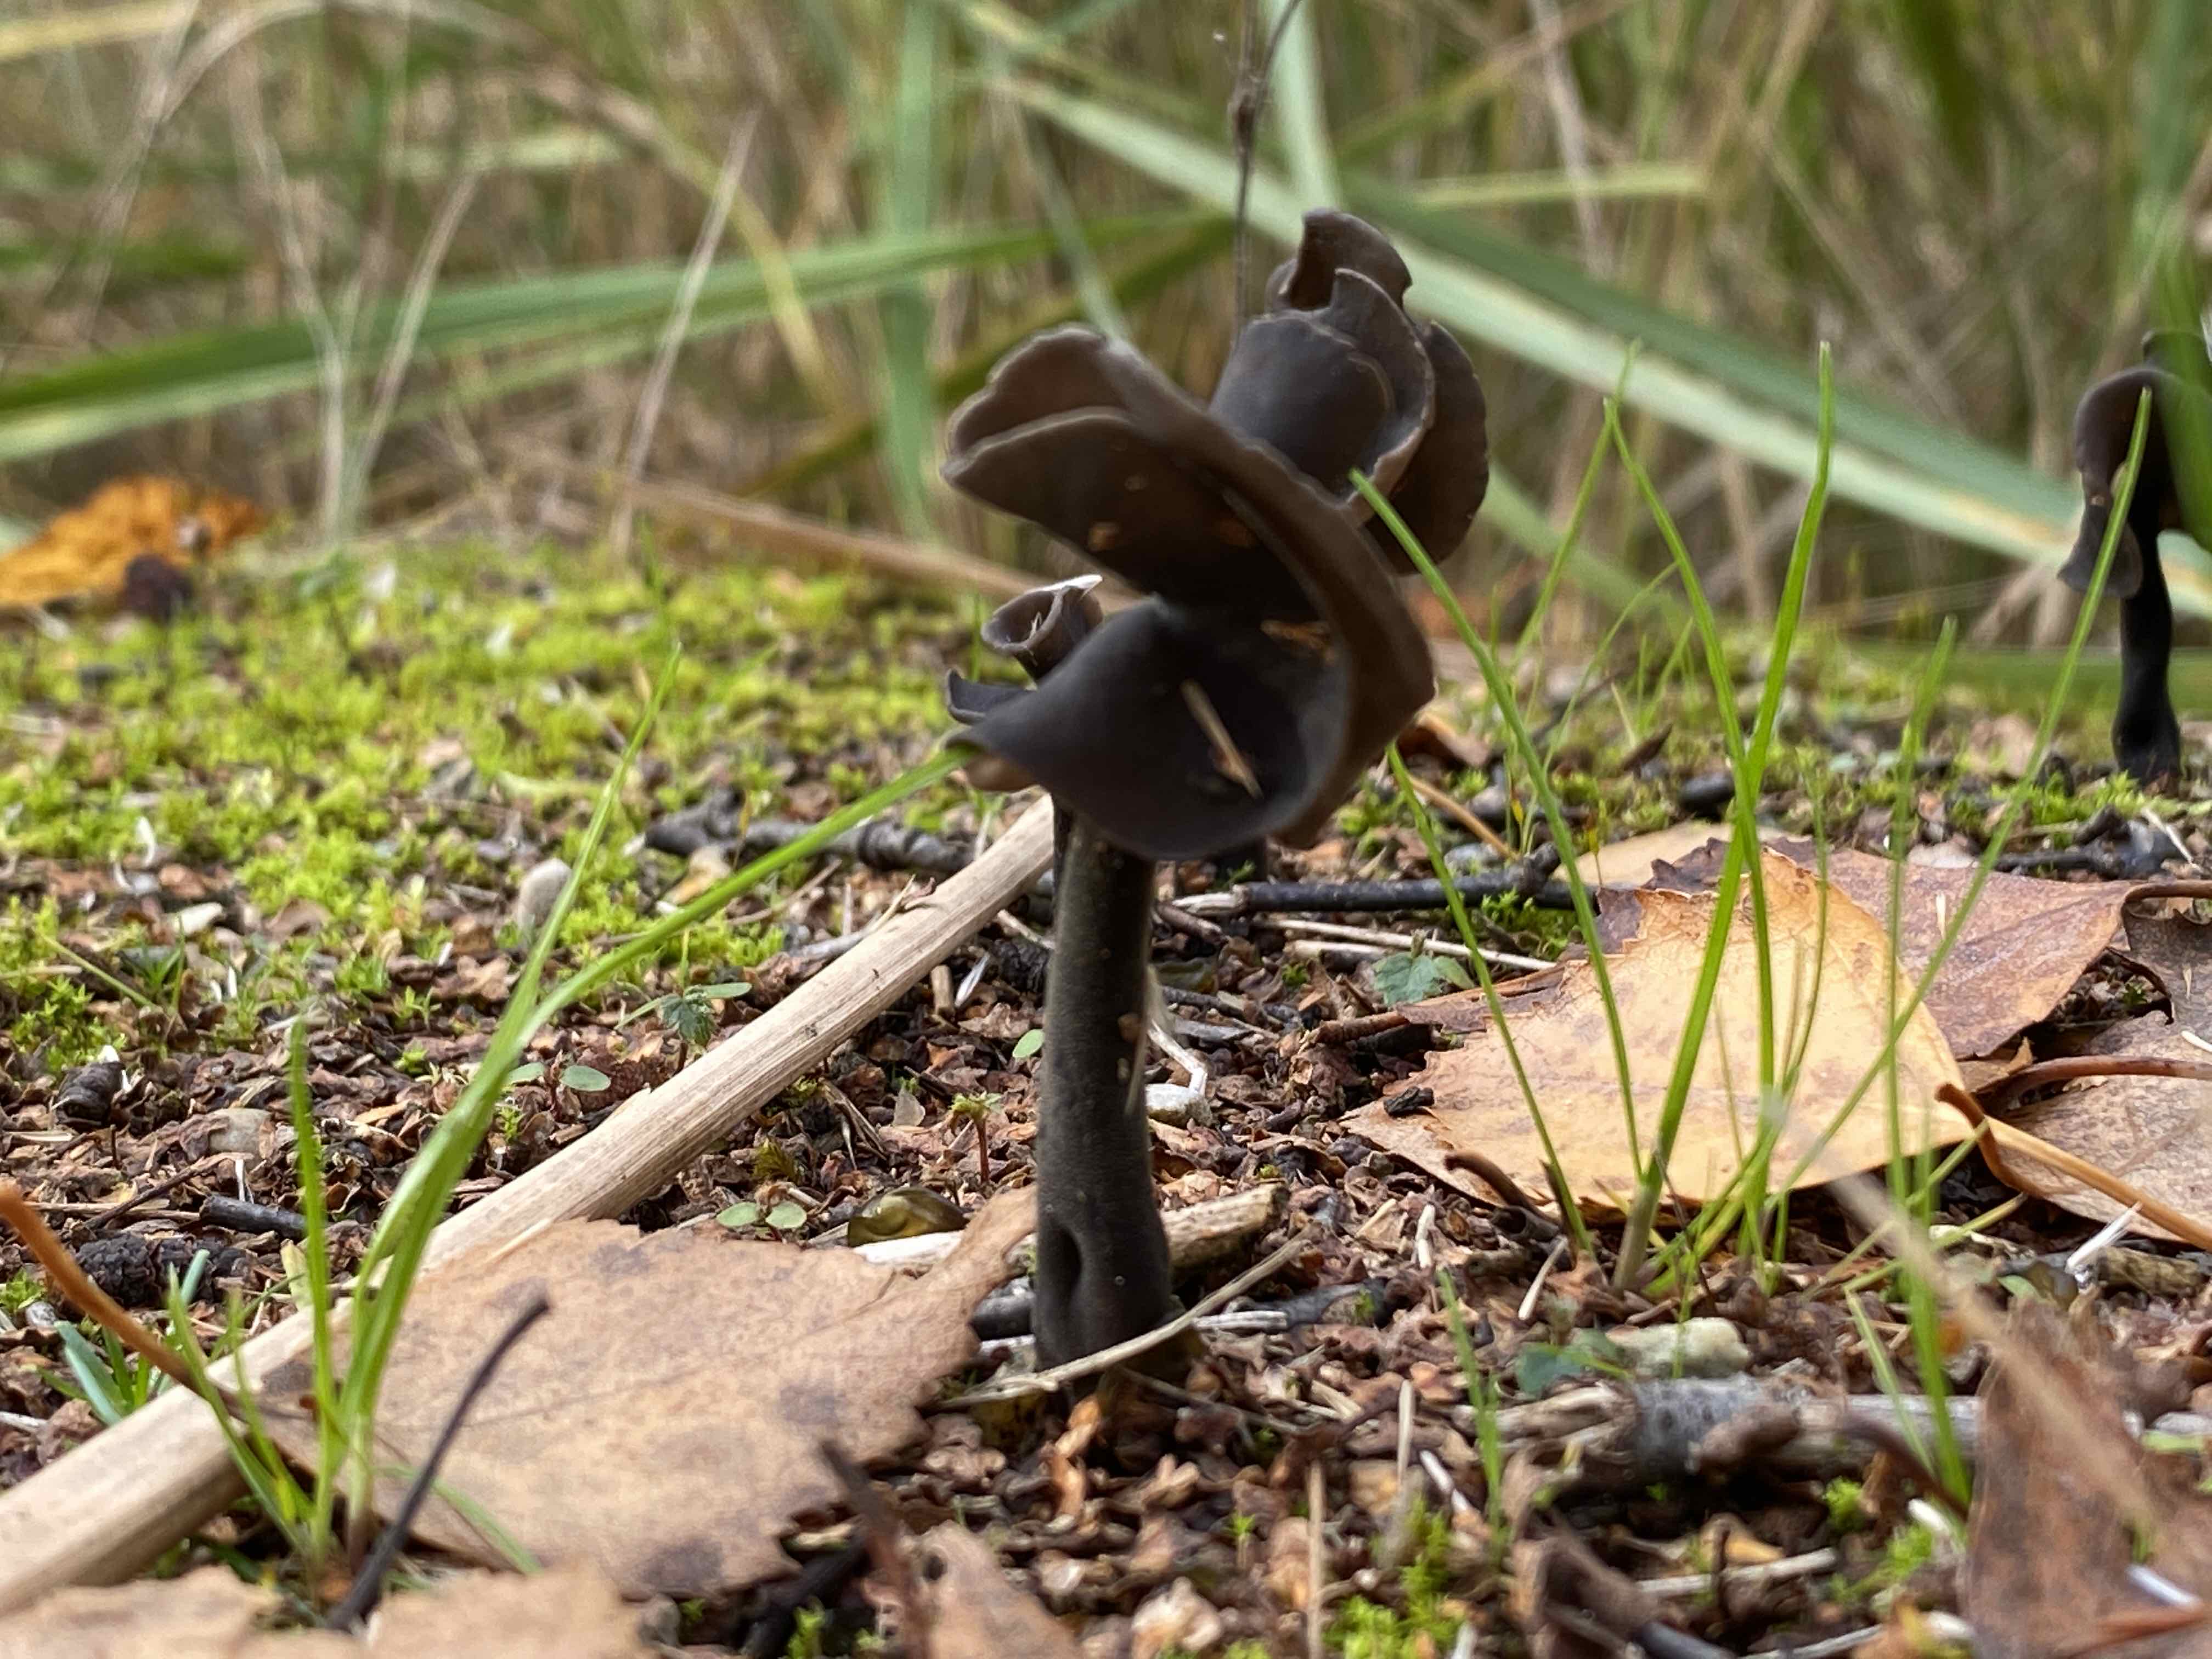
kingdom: Fungi
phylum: Ascomycota
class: Pezizomycetes
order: Pezizales
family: Helvellaceae
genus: Helvella
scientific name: Helvella atra
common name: sort foldhat
